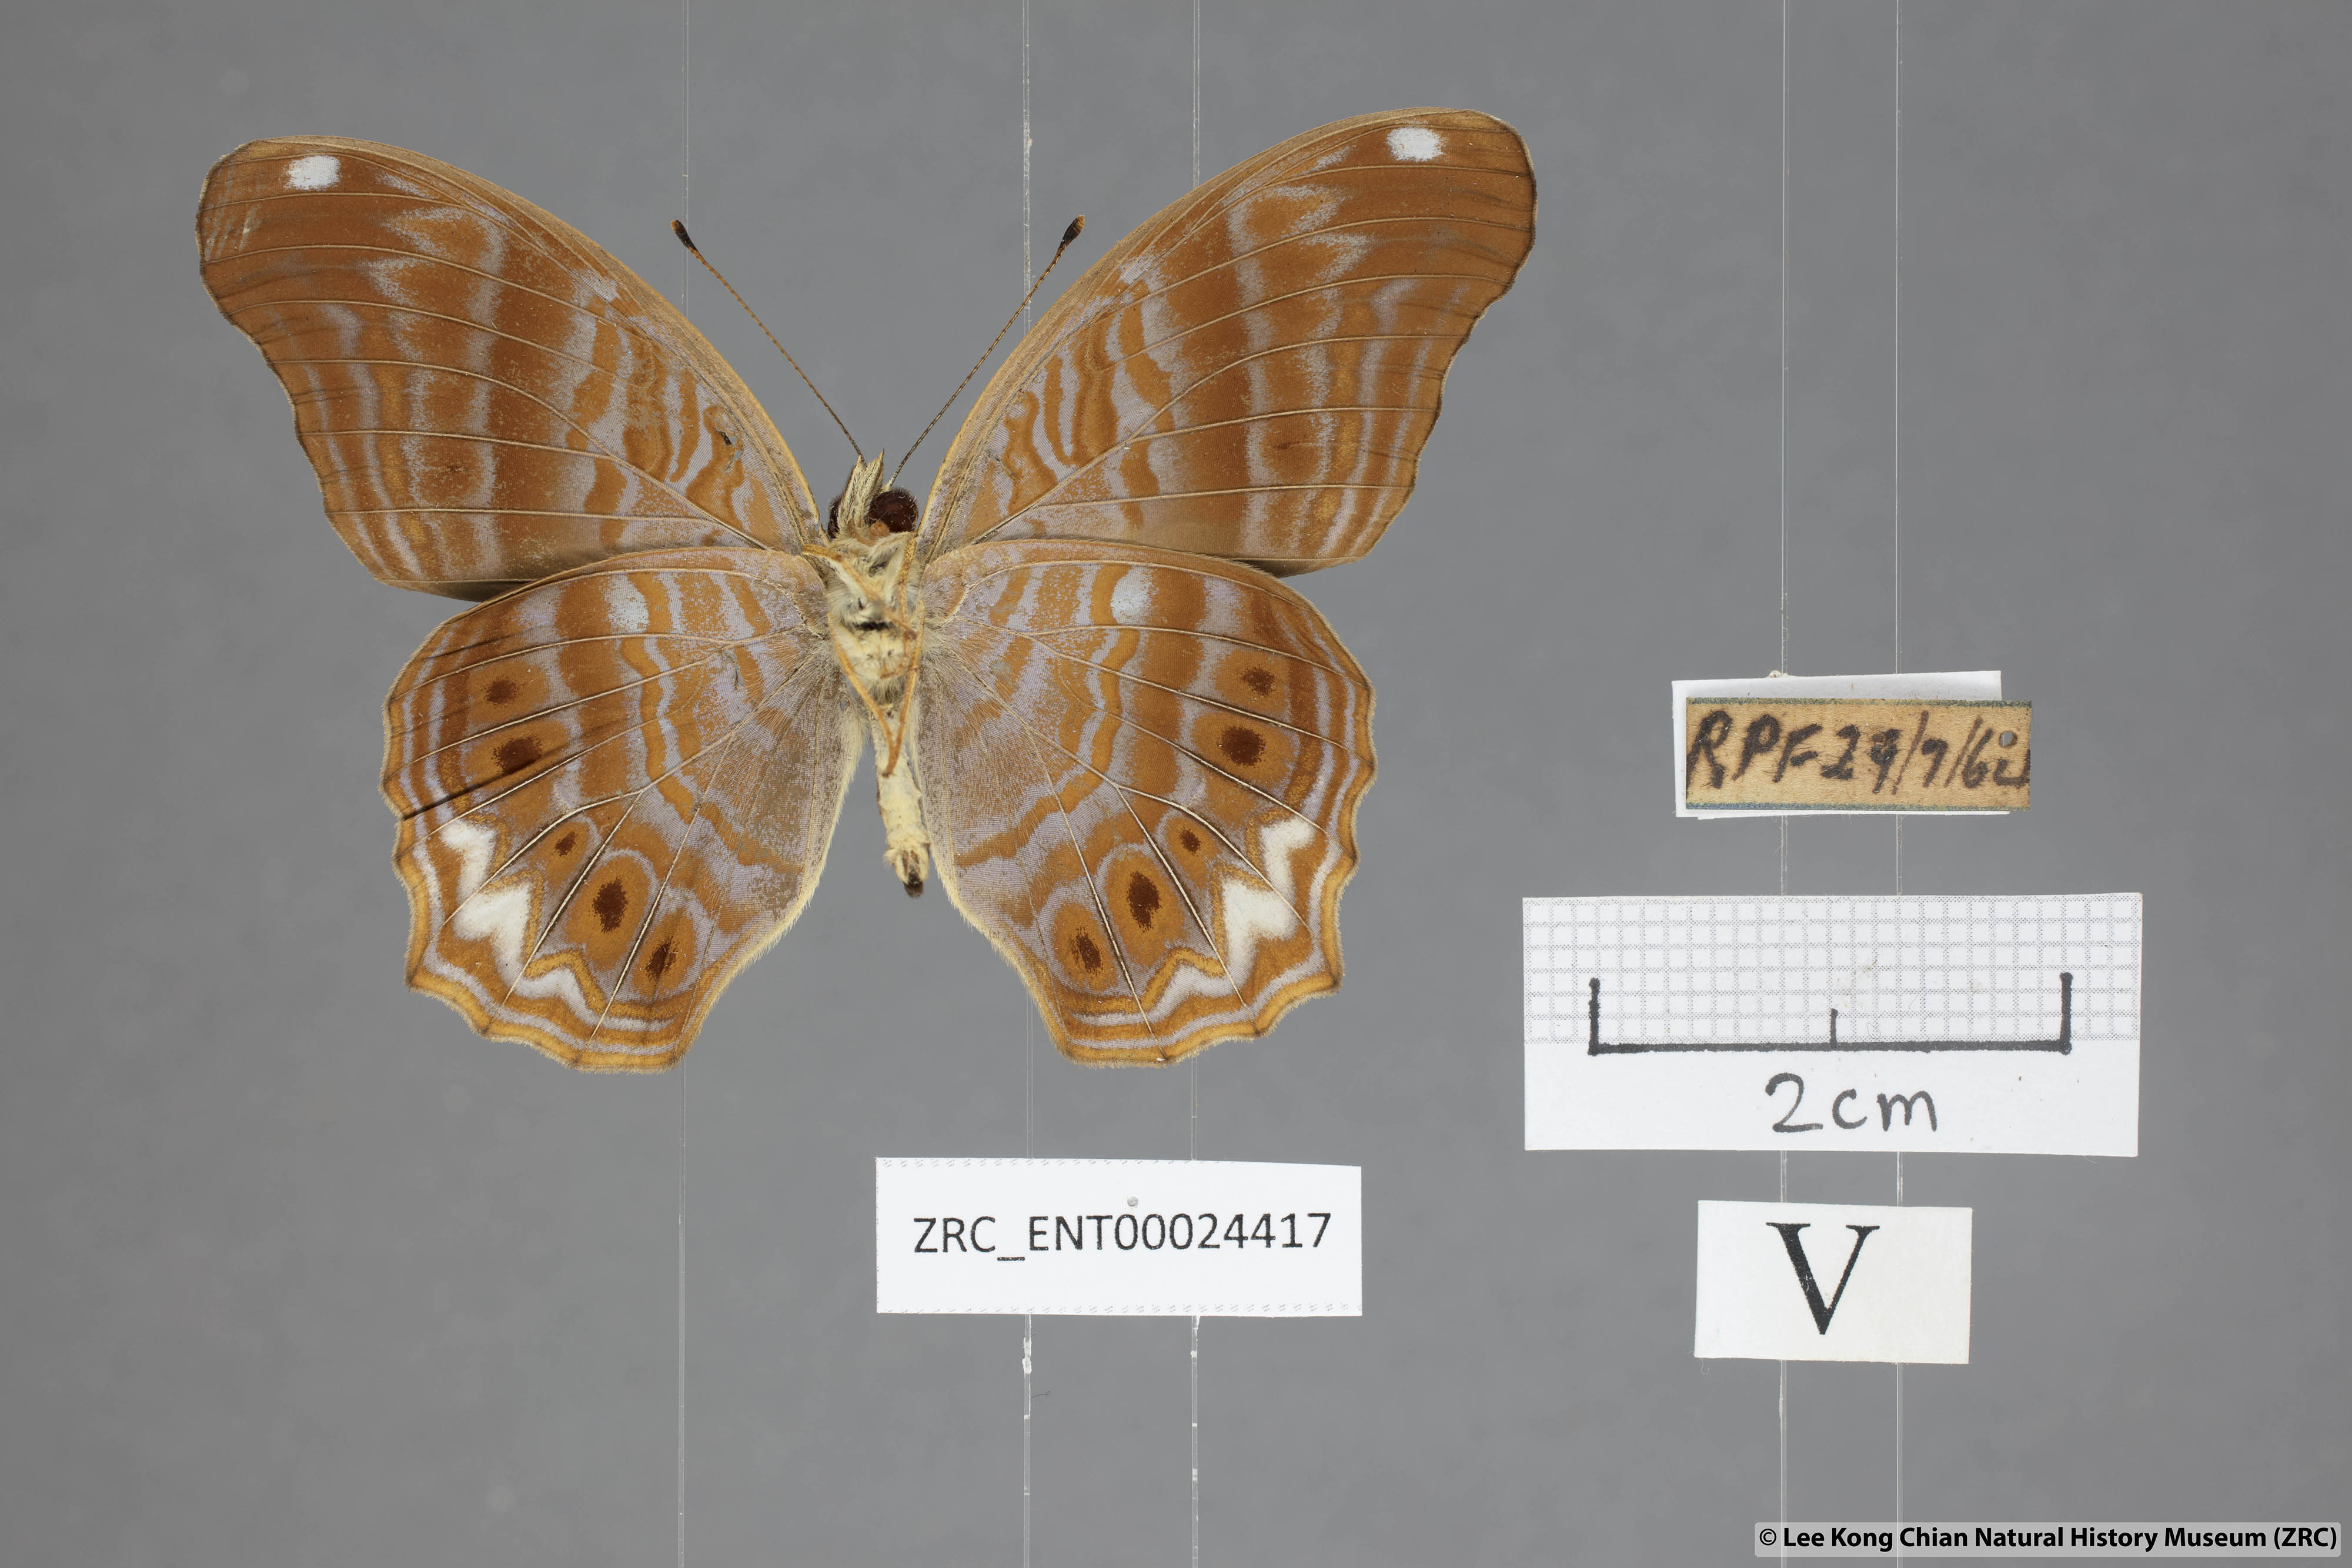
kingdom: Animalia
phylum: Arthropoda
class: Insecta
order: Lepidoptera
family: Nymphalidae
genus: Terinos
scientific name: Terinos atlita
